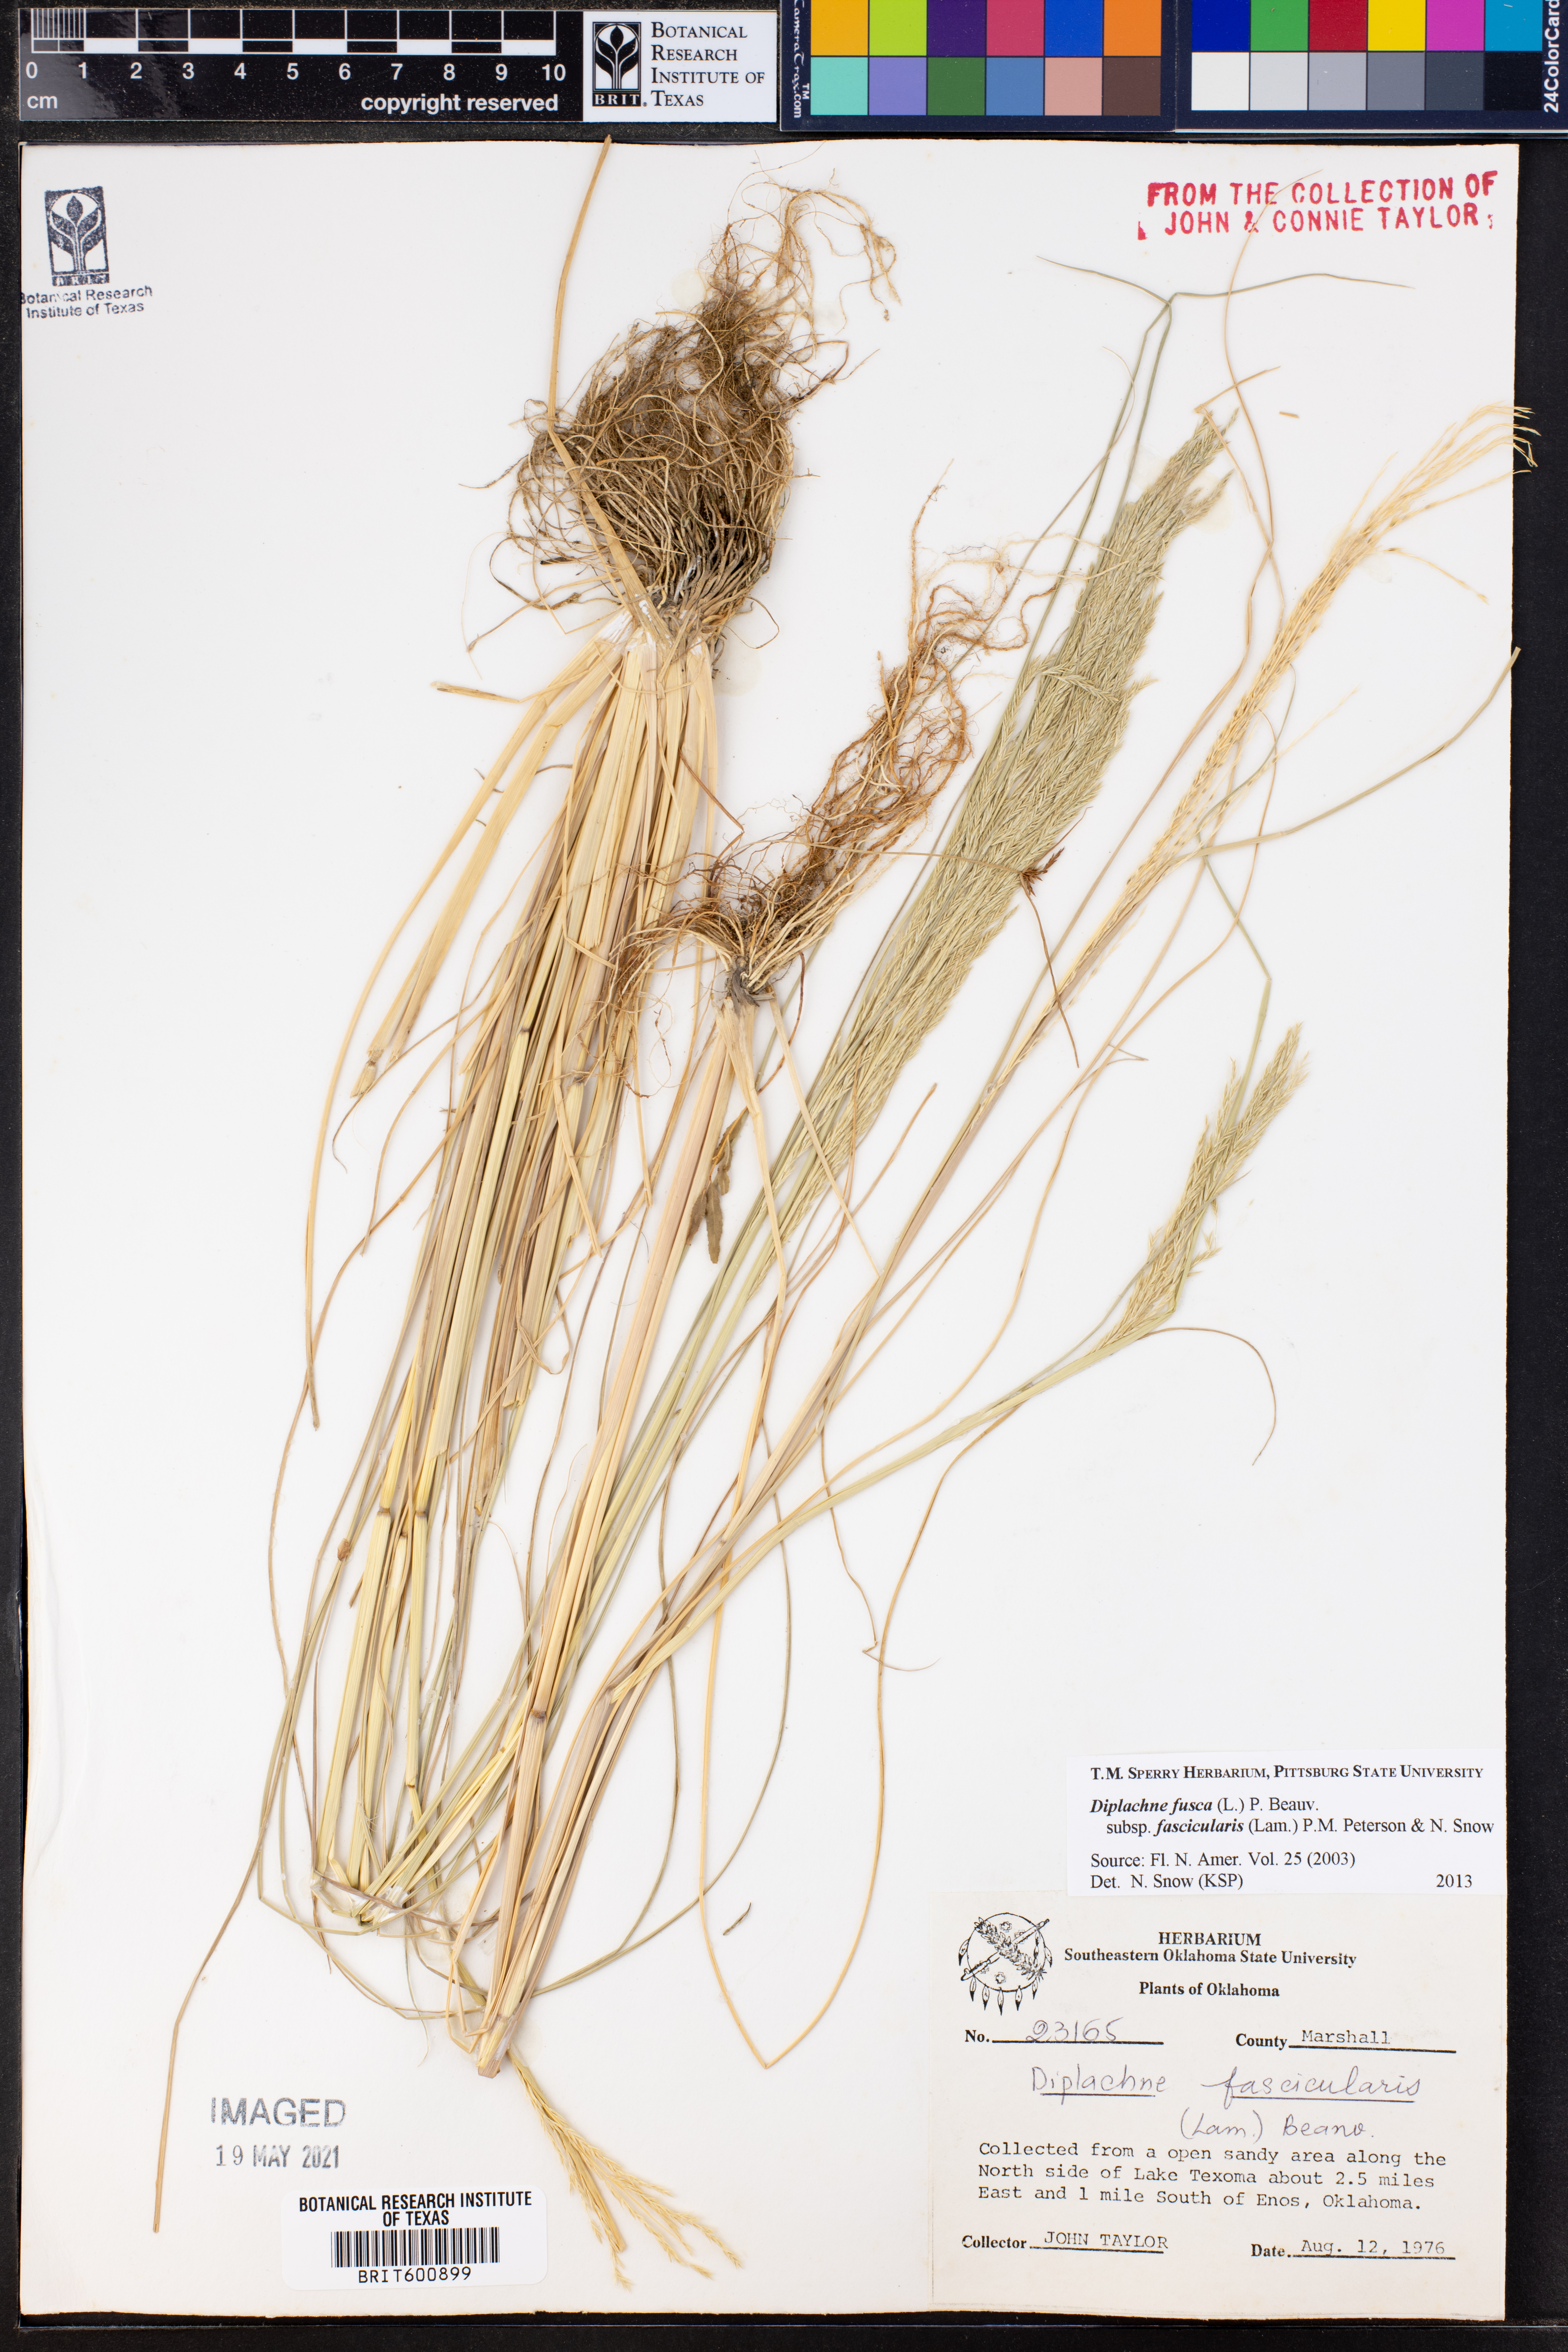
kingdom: Plantae
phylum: Tracheophyta
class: Liliopsida
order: Poales
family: Poaceae
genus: Diplachne
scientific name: Diplachne fusca
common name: Brown beetle grass
